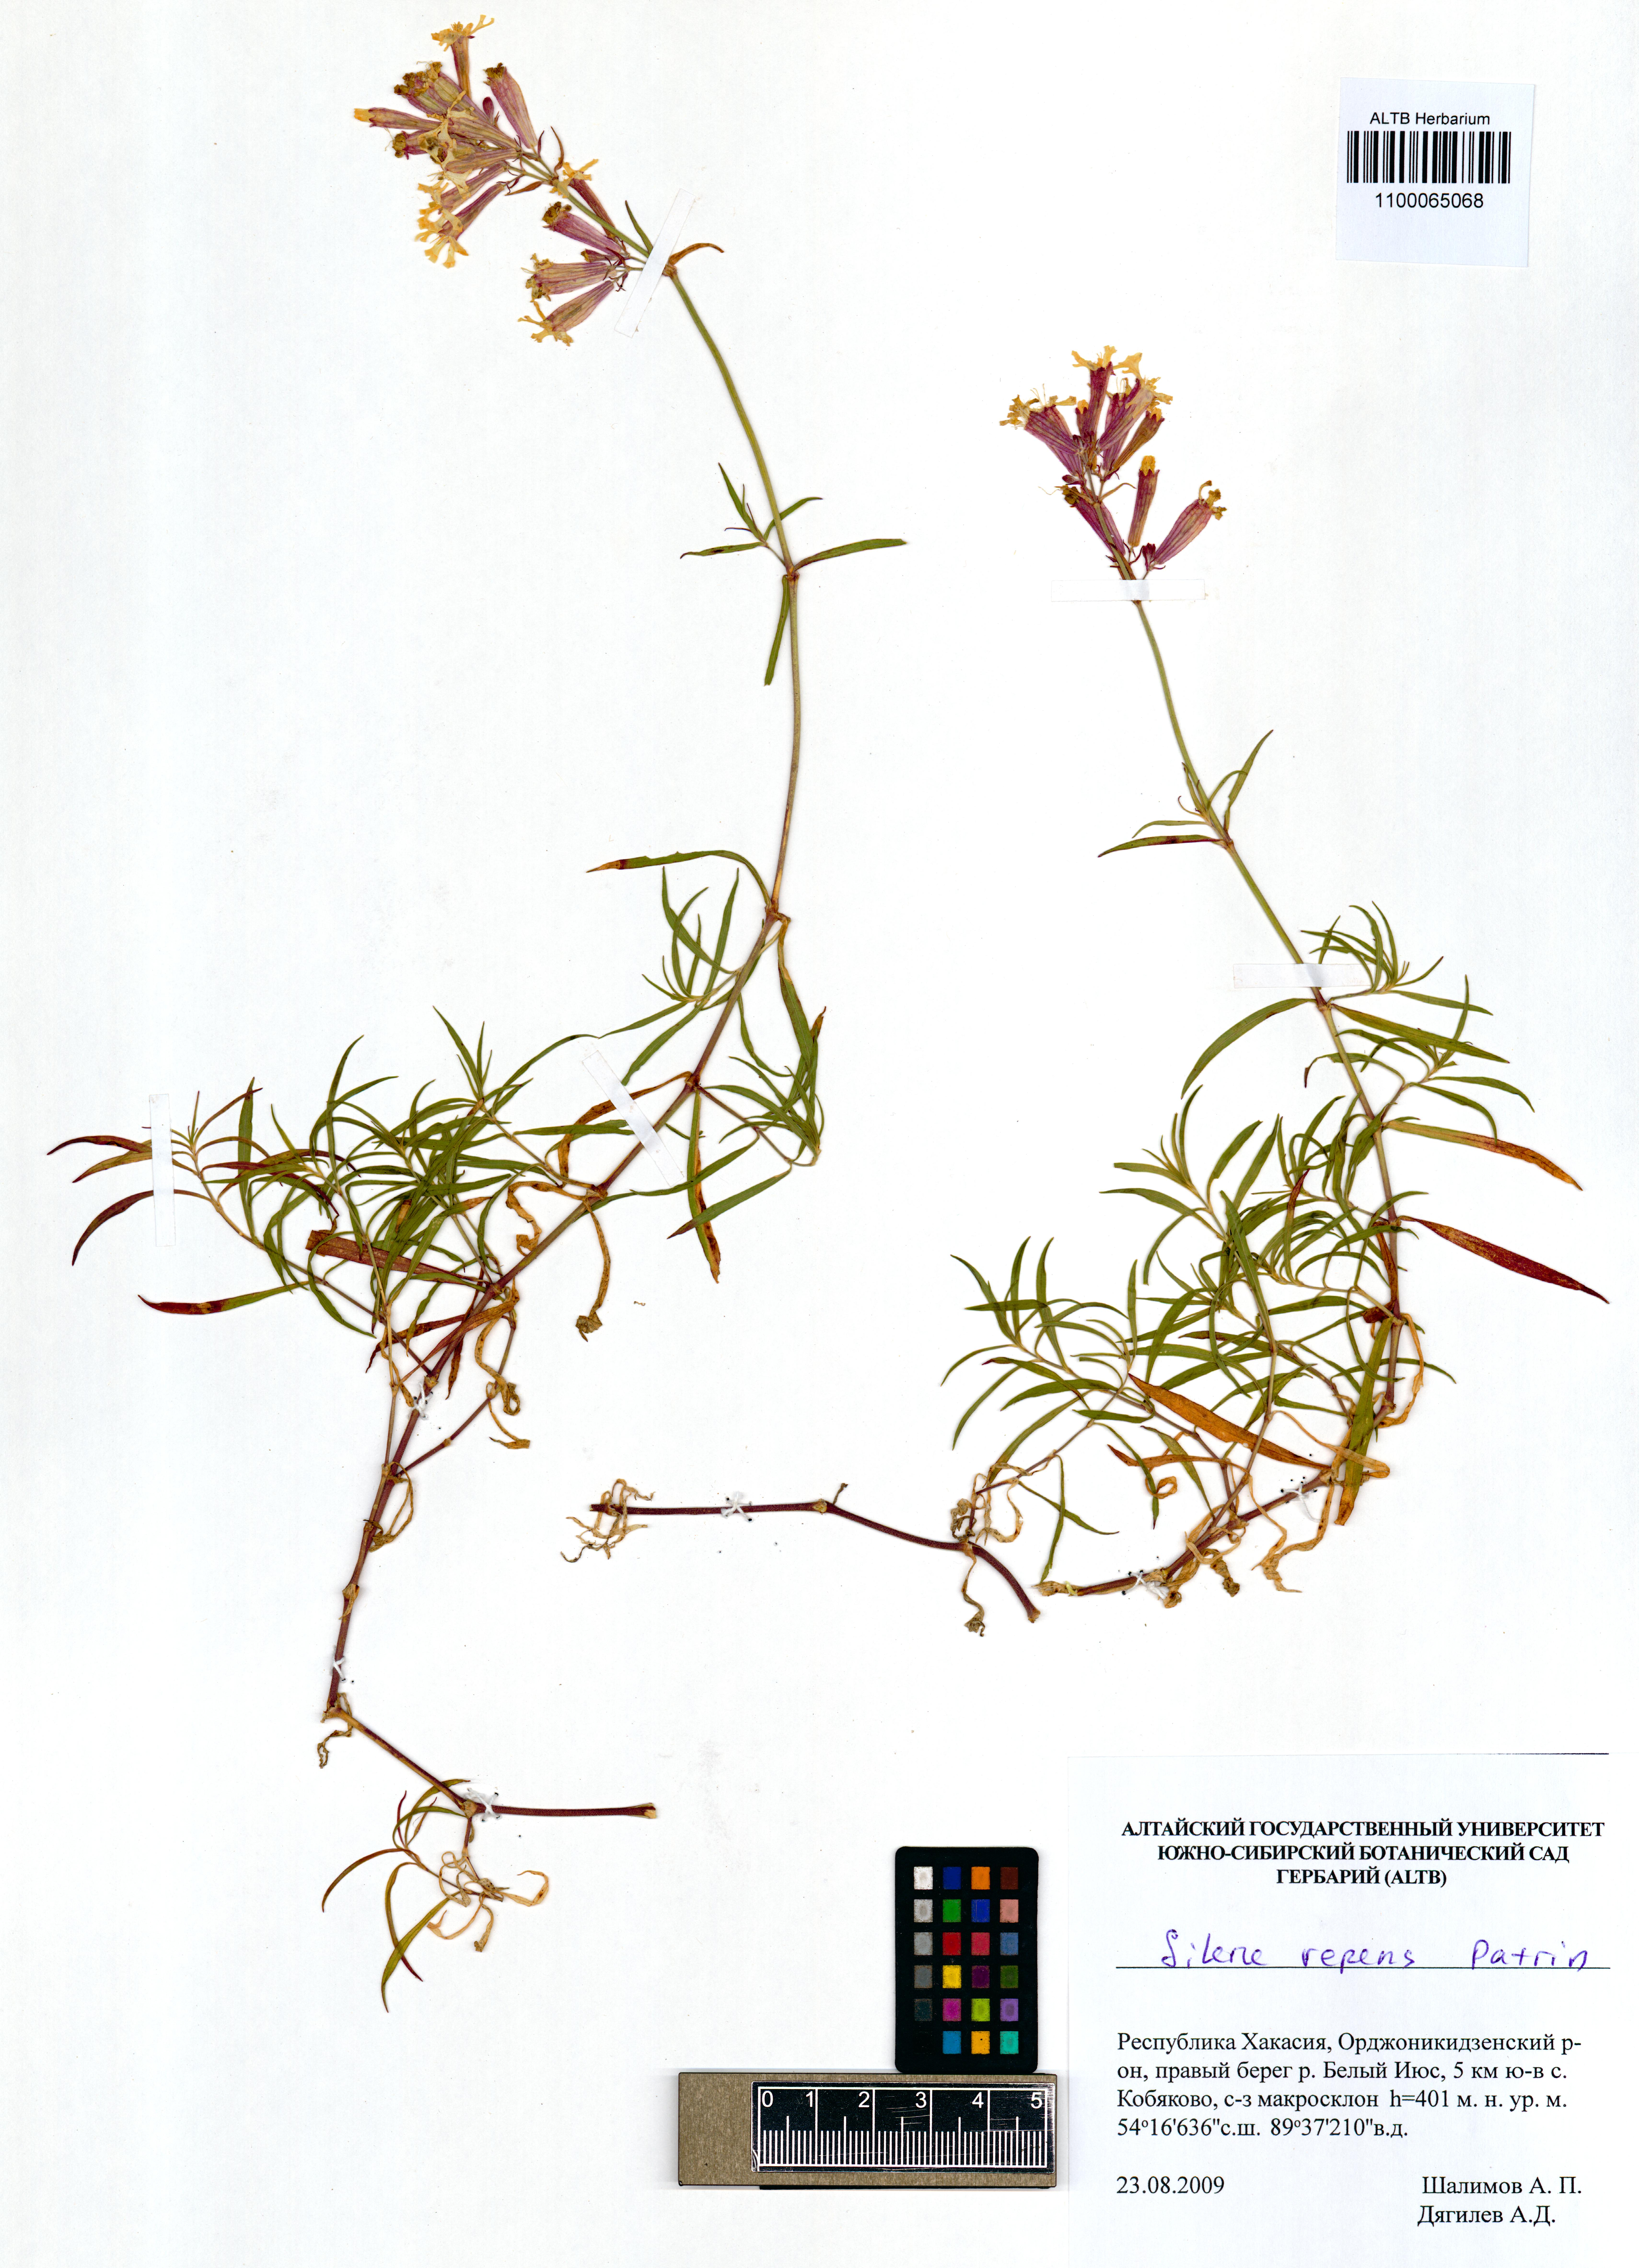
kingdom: Plantae
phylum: Tracheophyta
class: Magnoliopsida
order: Caryophyllales
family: Caryophyllaceae
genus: Silene
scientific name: Silene repens
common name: Pink campion
